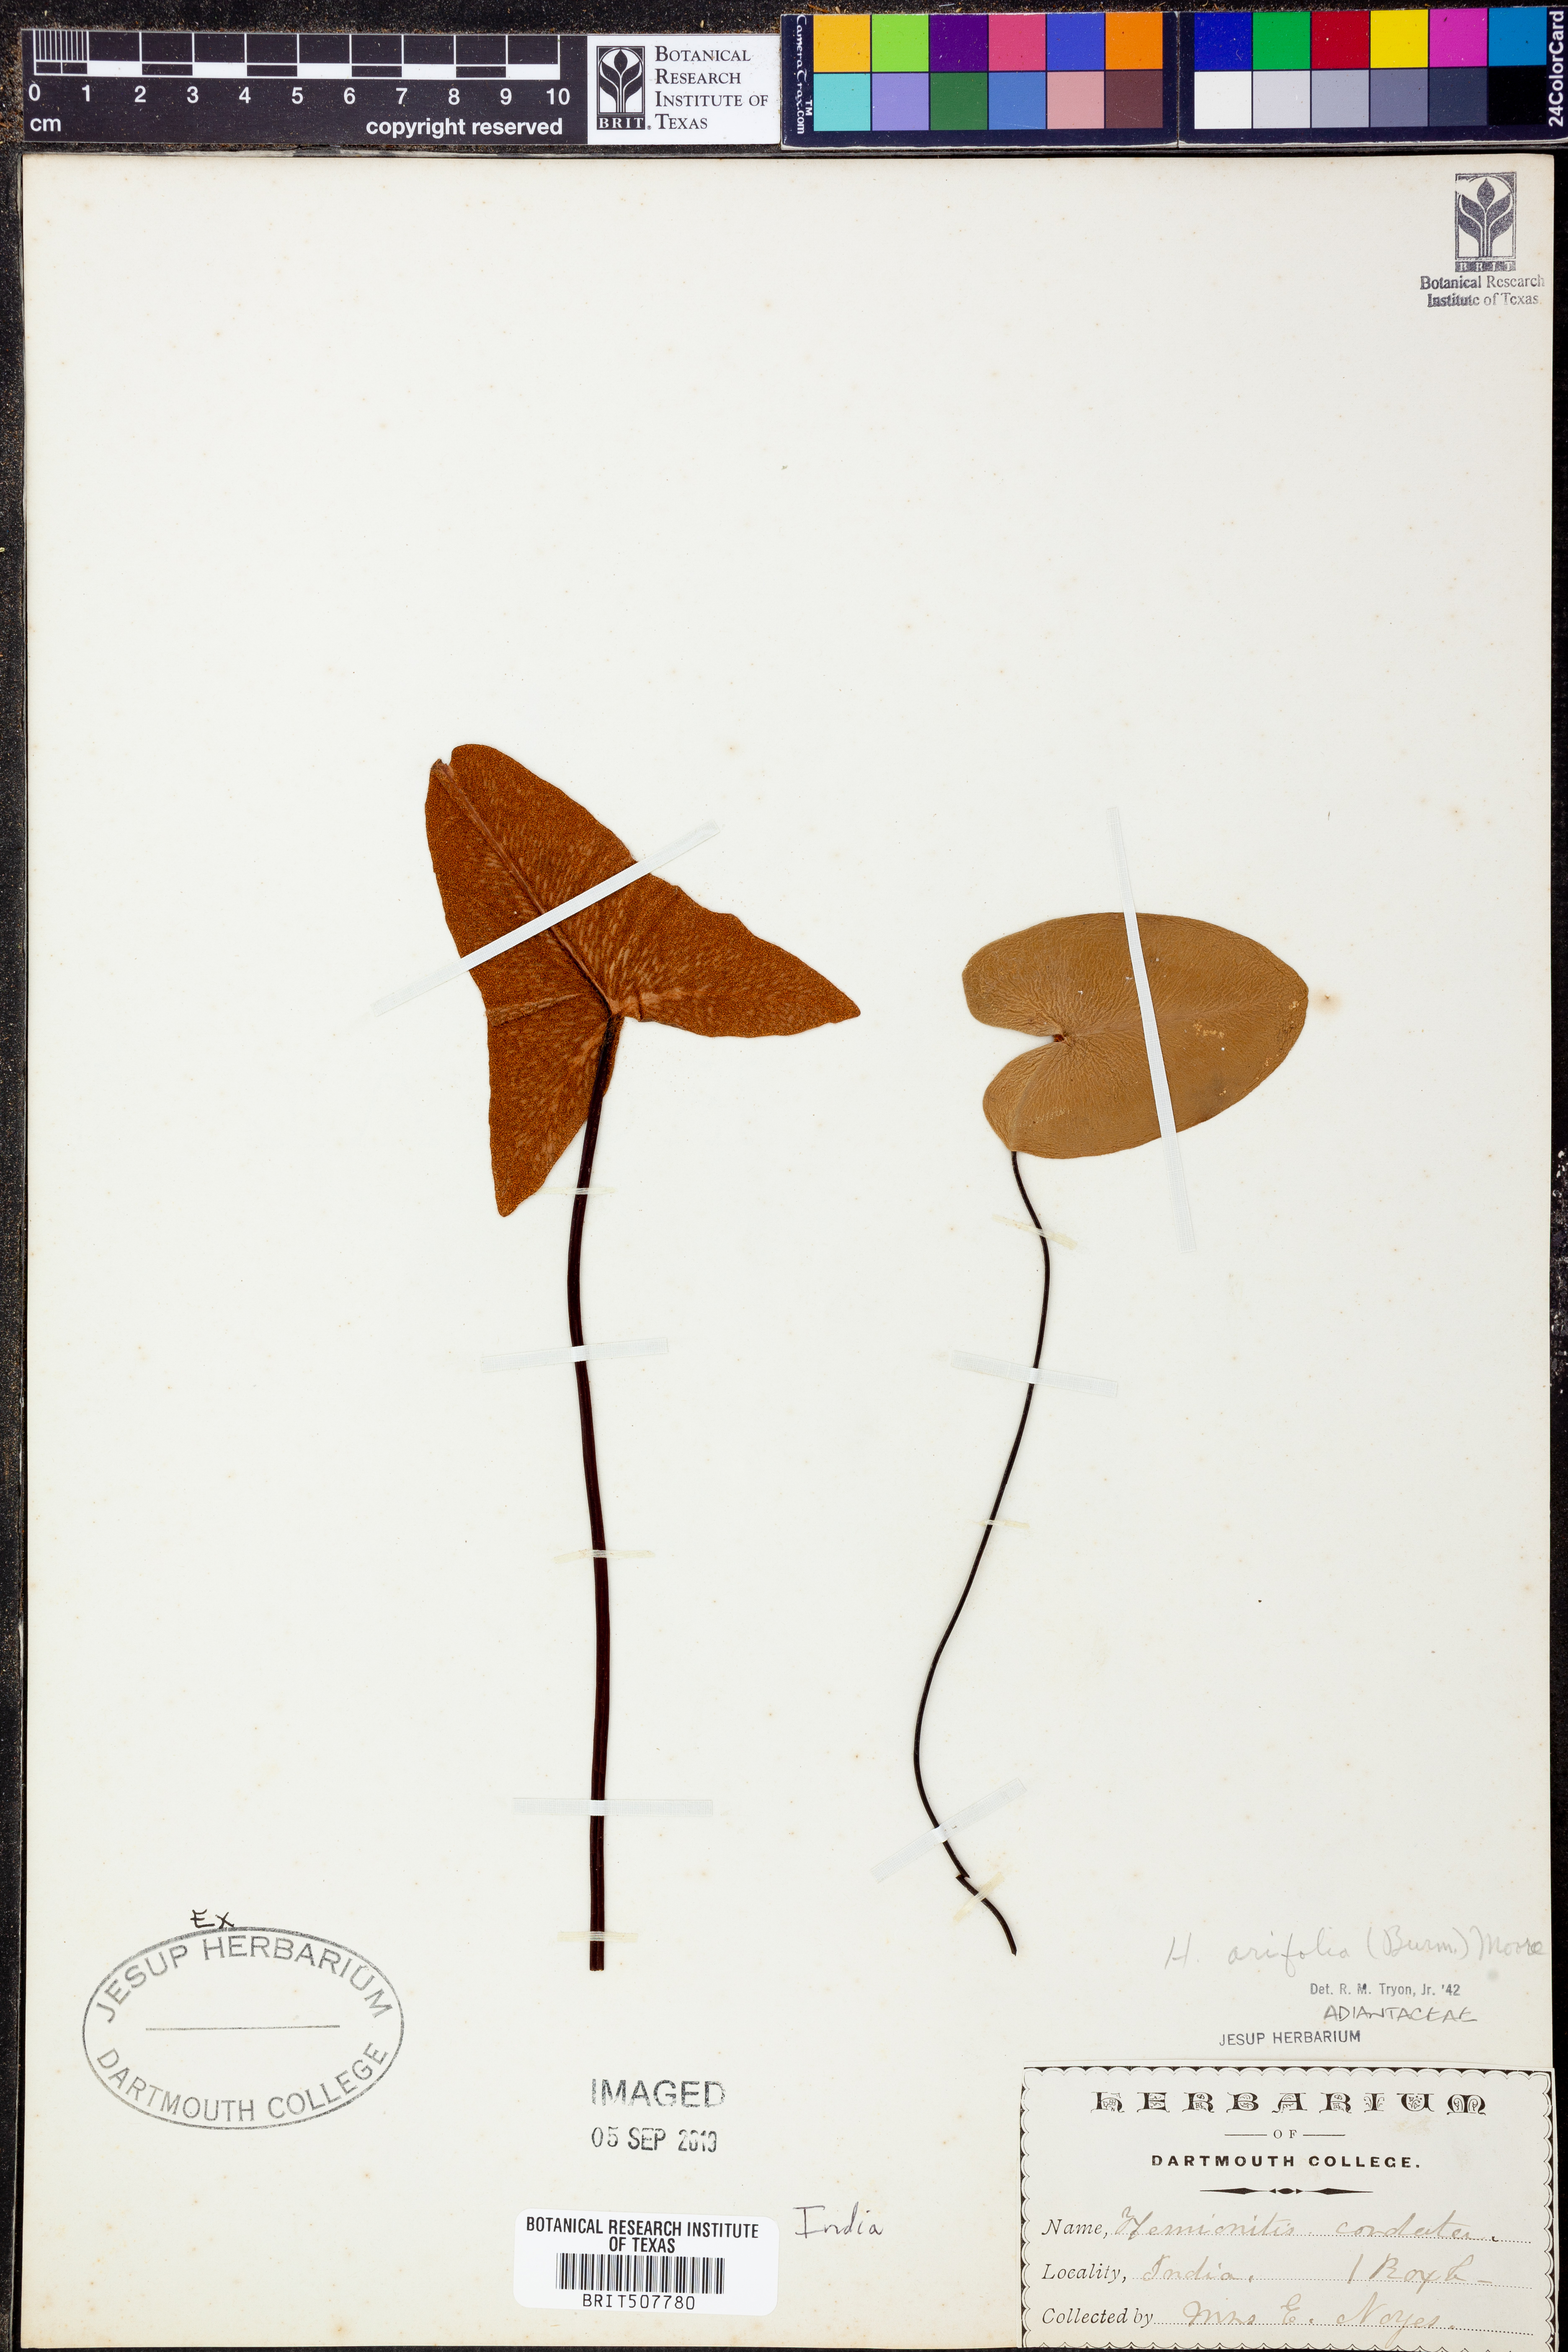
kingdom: Plantae
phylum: Tracheophyta
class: Polypodiopsida
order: Polypodiales
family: Pteridaceae
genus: Acrostichum
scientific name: Acrostichum aureum
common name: Leather fern
